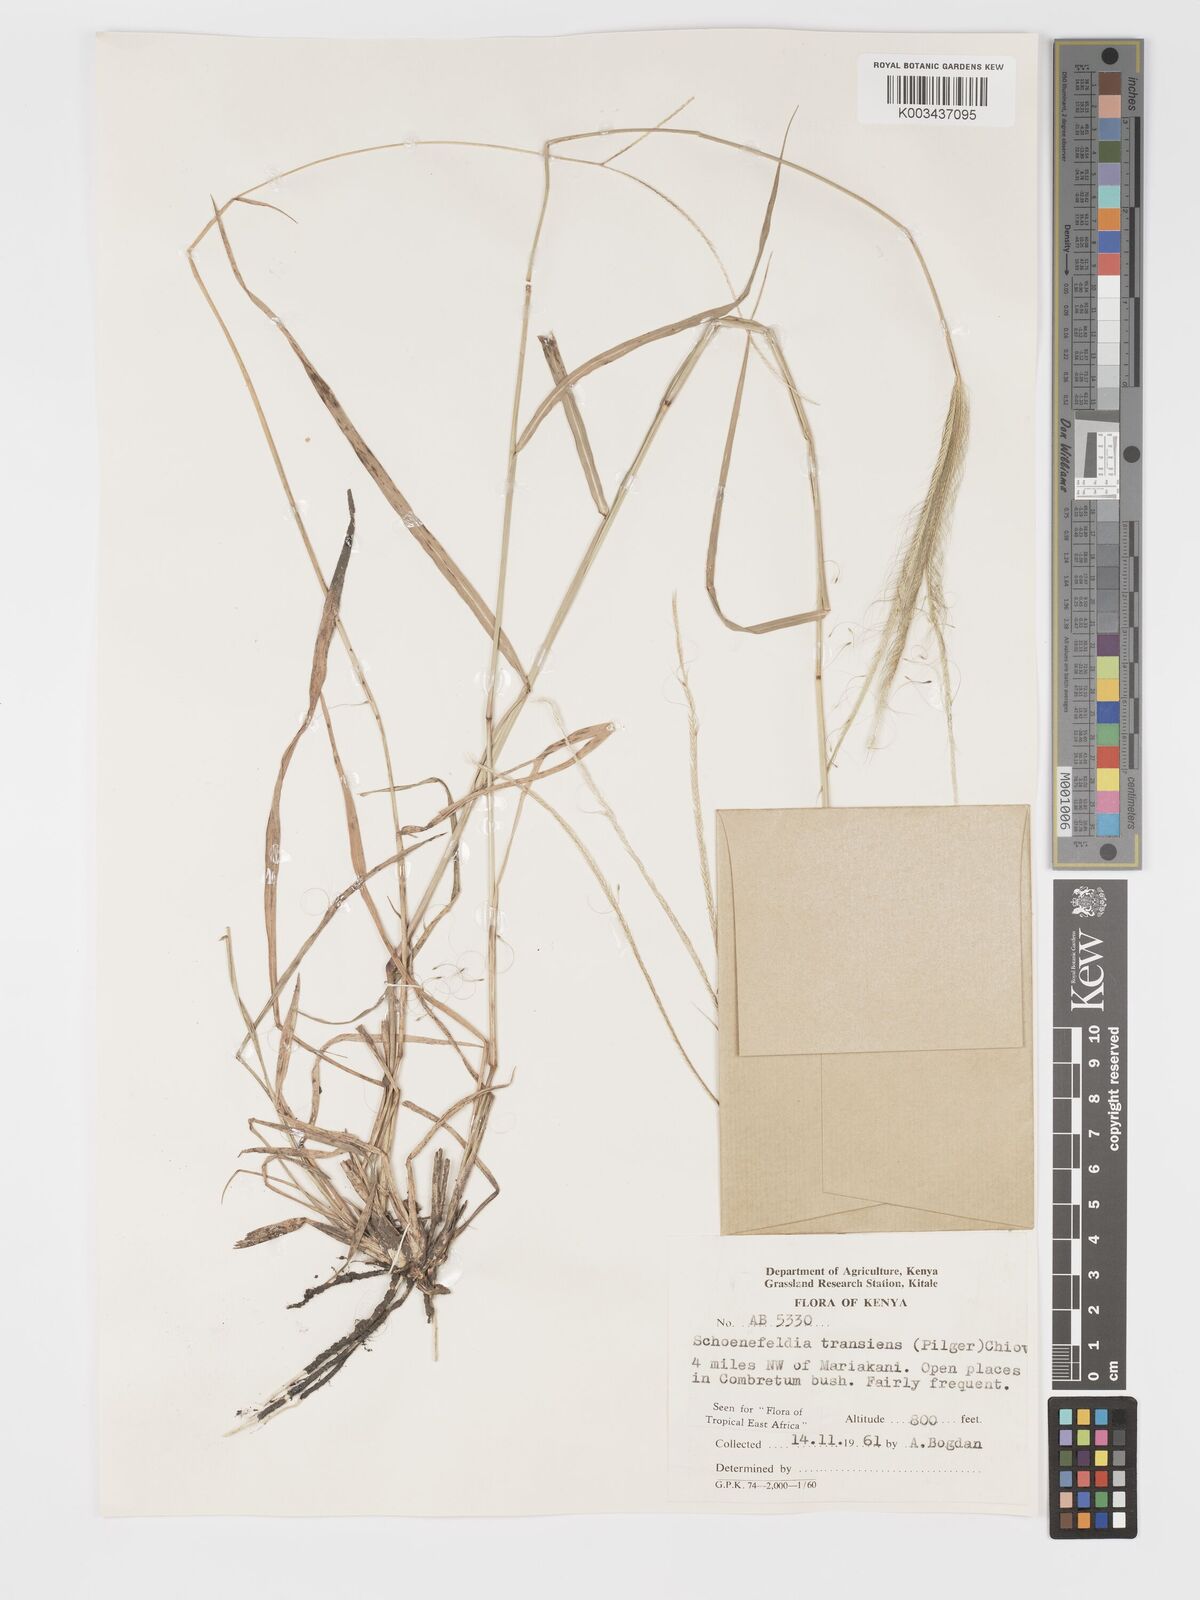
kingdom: Plantae
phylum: Tracheophyta
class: Liliopsida
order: Poales
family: Poaceae
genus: Schoenefeldia
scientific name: Schoenefeldia transiens
